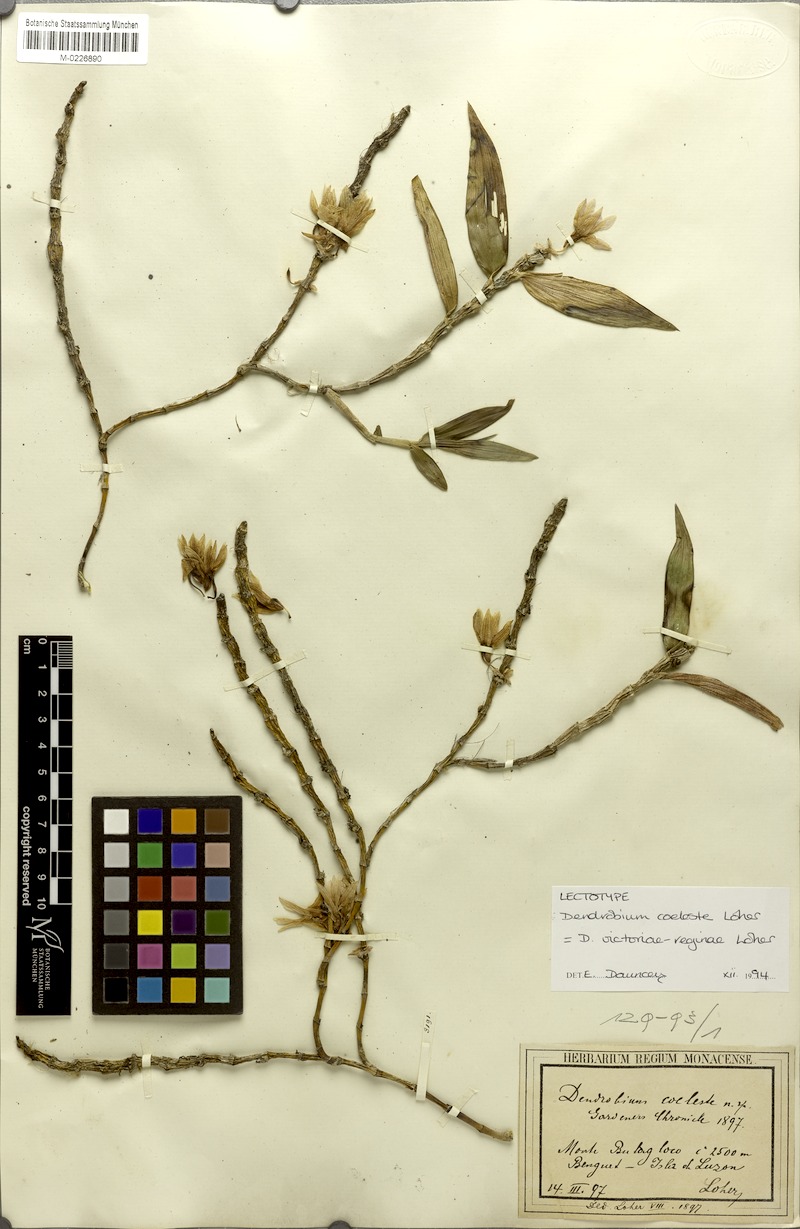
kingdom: Plantae
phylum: Tracheophyta
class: Liliopsida
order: Asparagales
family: Orchidaceae
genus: Dendrobium
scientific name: Dendrobium victoriae-reginae
